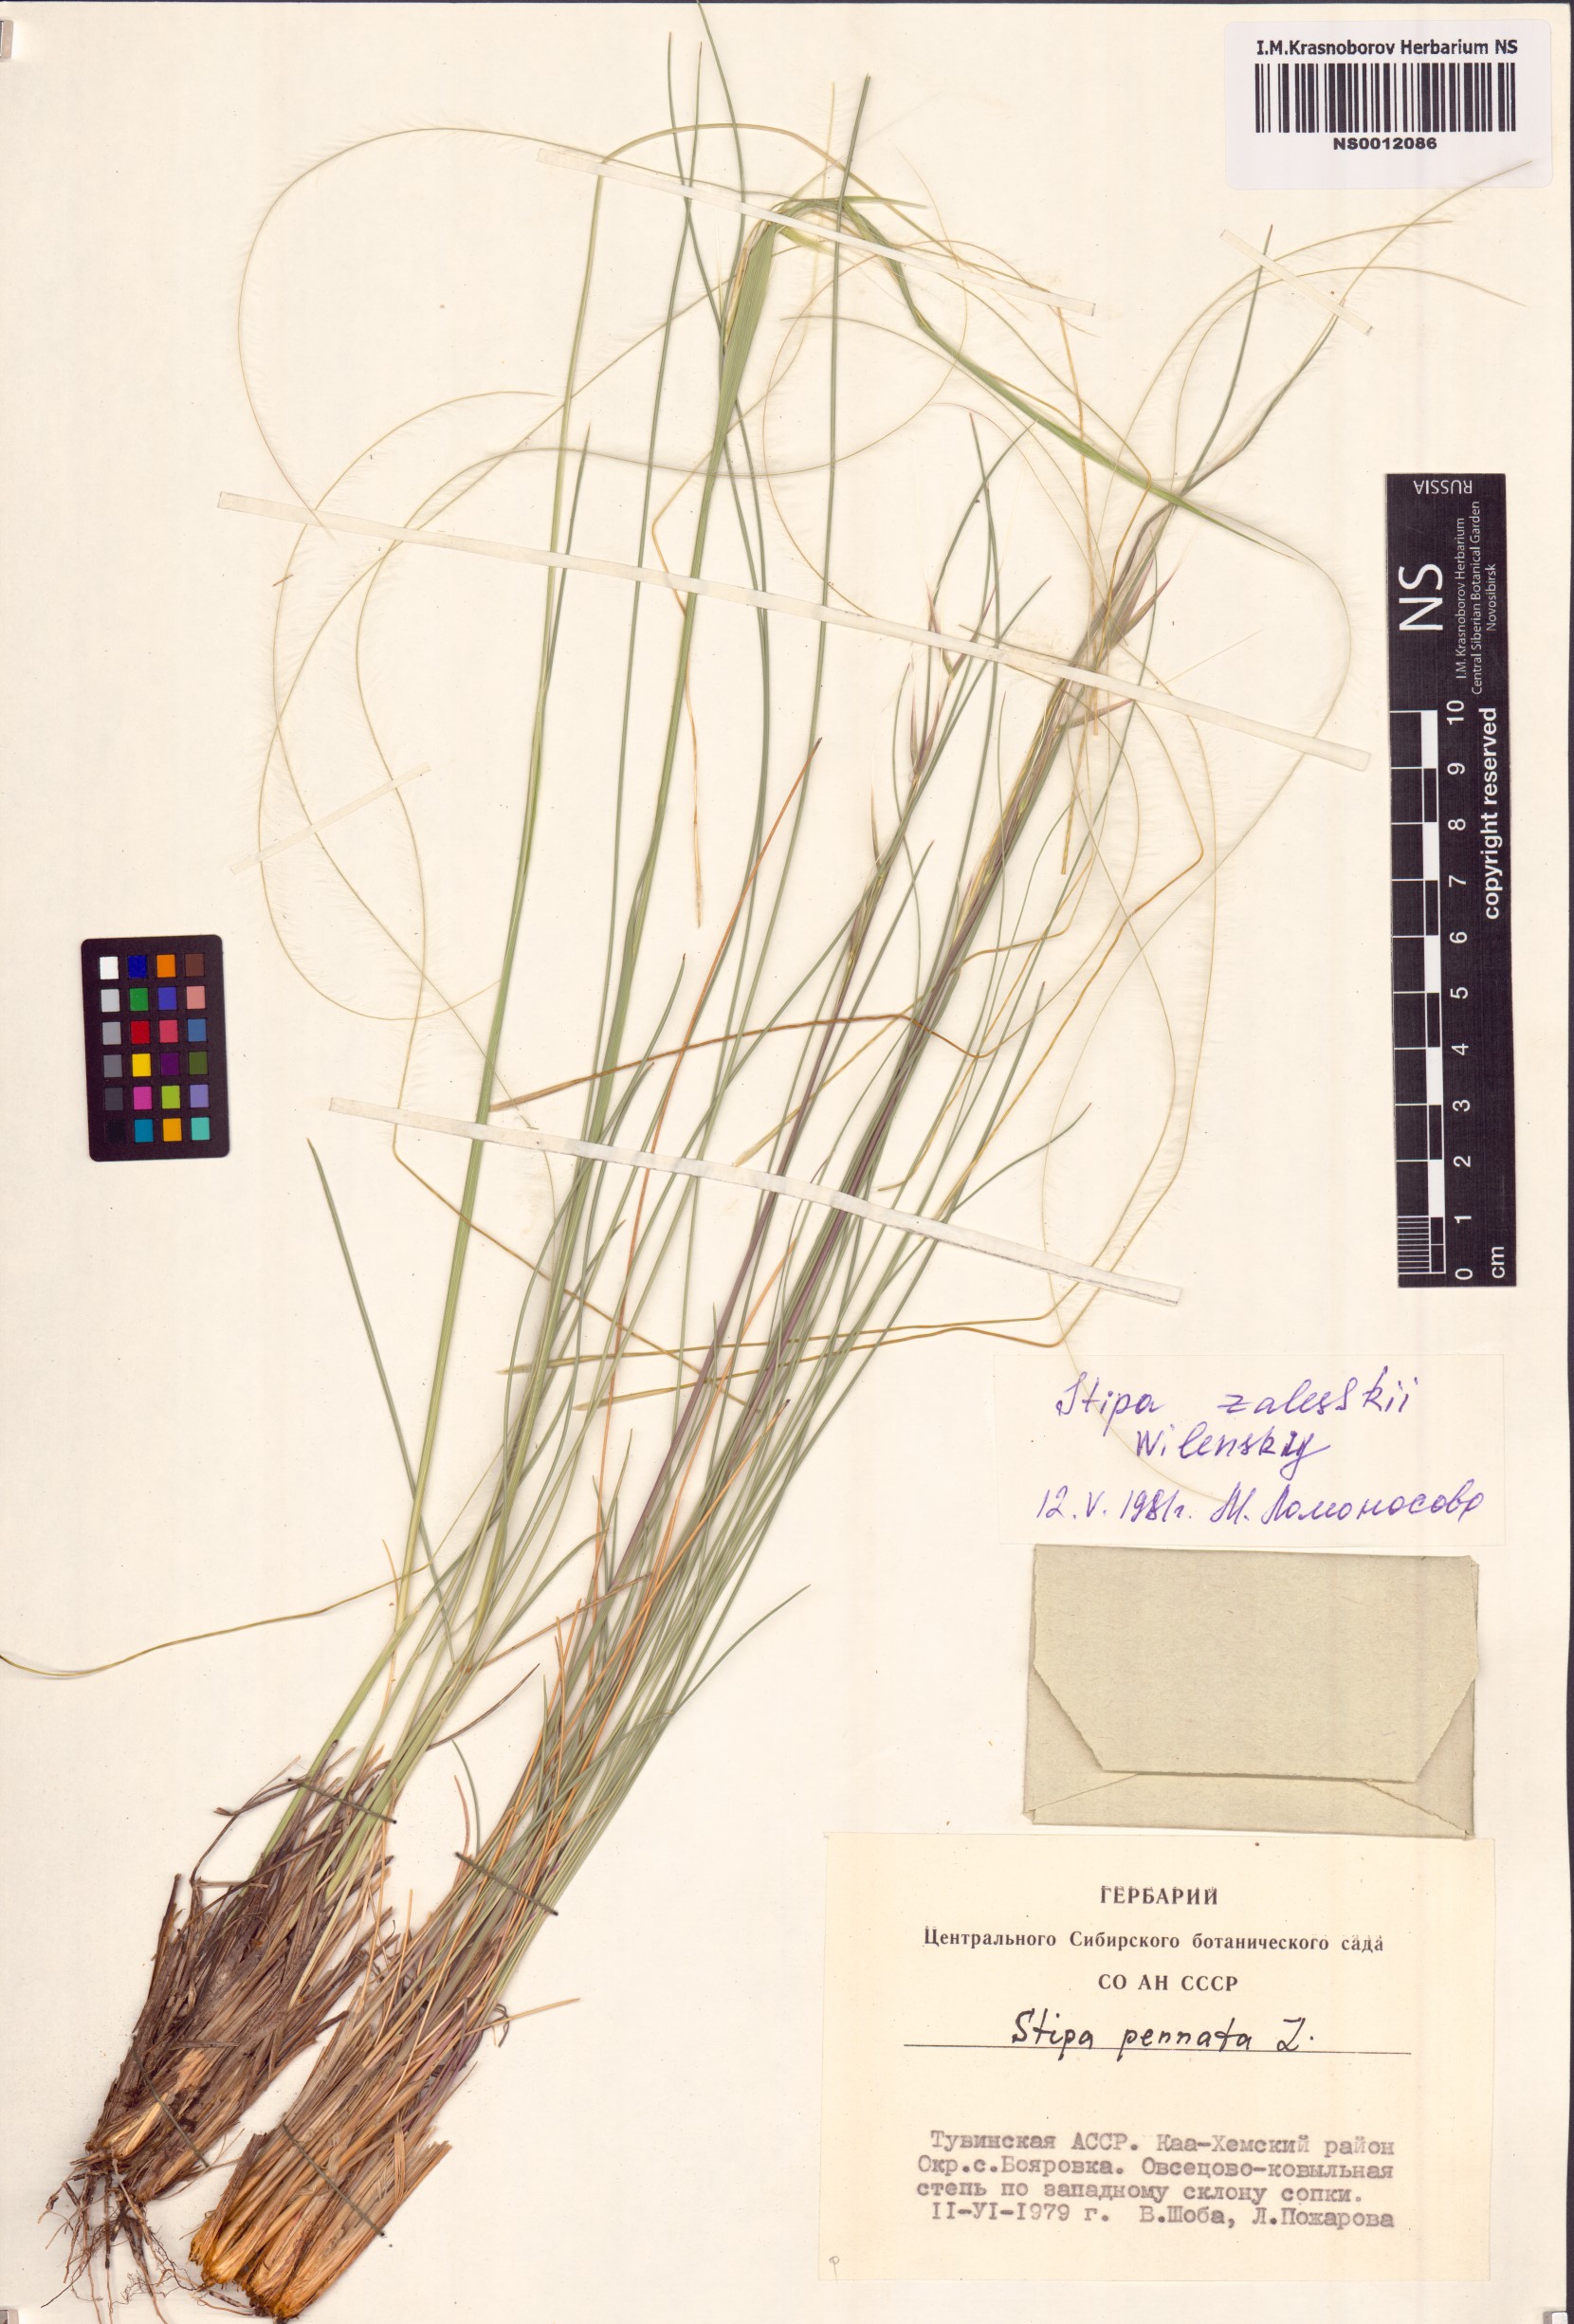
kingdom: Plantae
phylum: Tracheophyta
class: Liliopsida
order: Poales
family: Poaceae
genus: Stipa
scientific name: Stipa zalesskii
